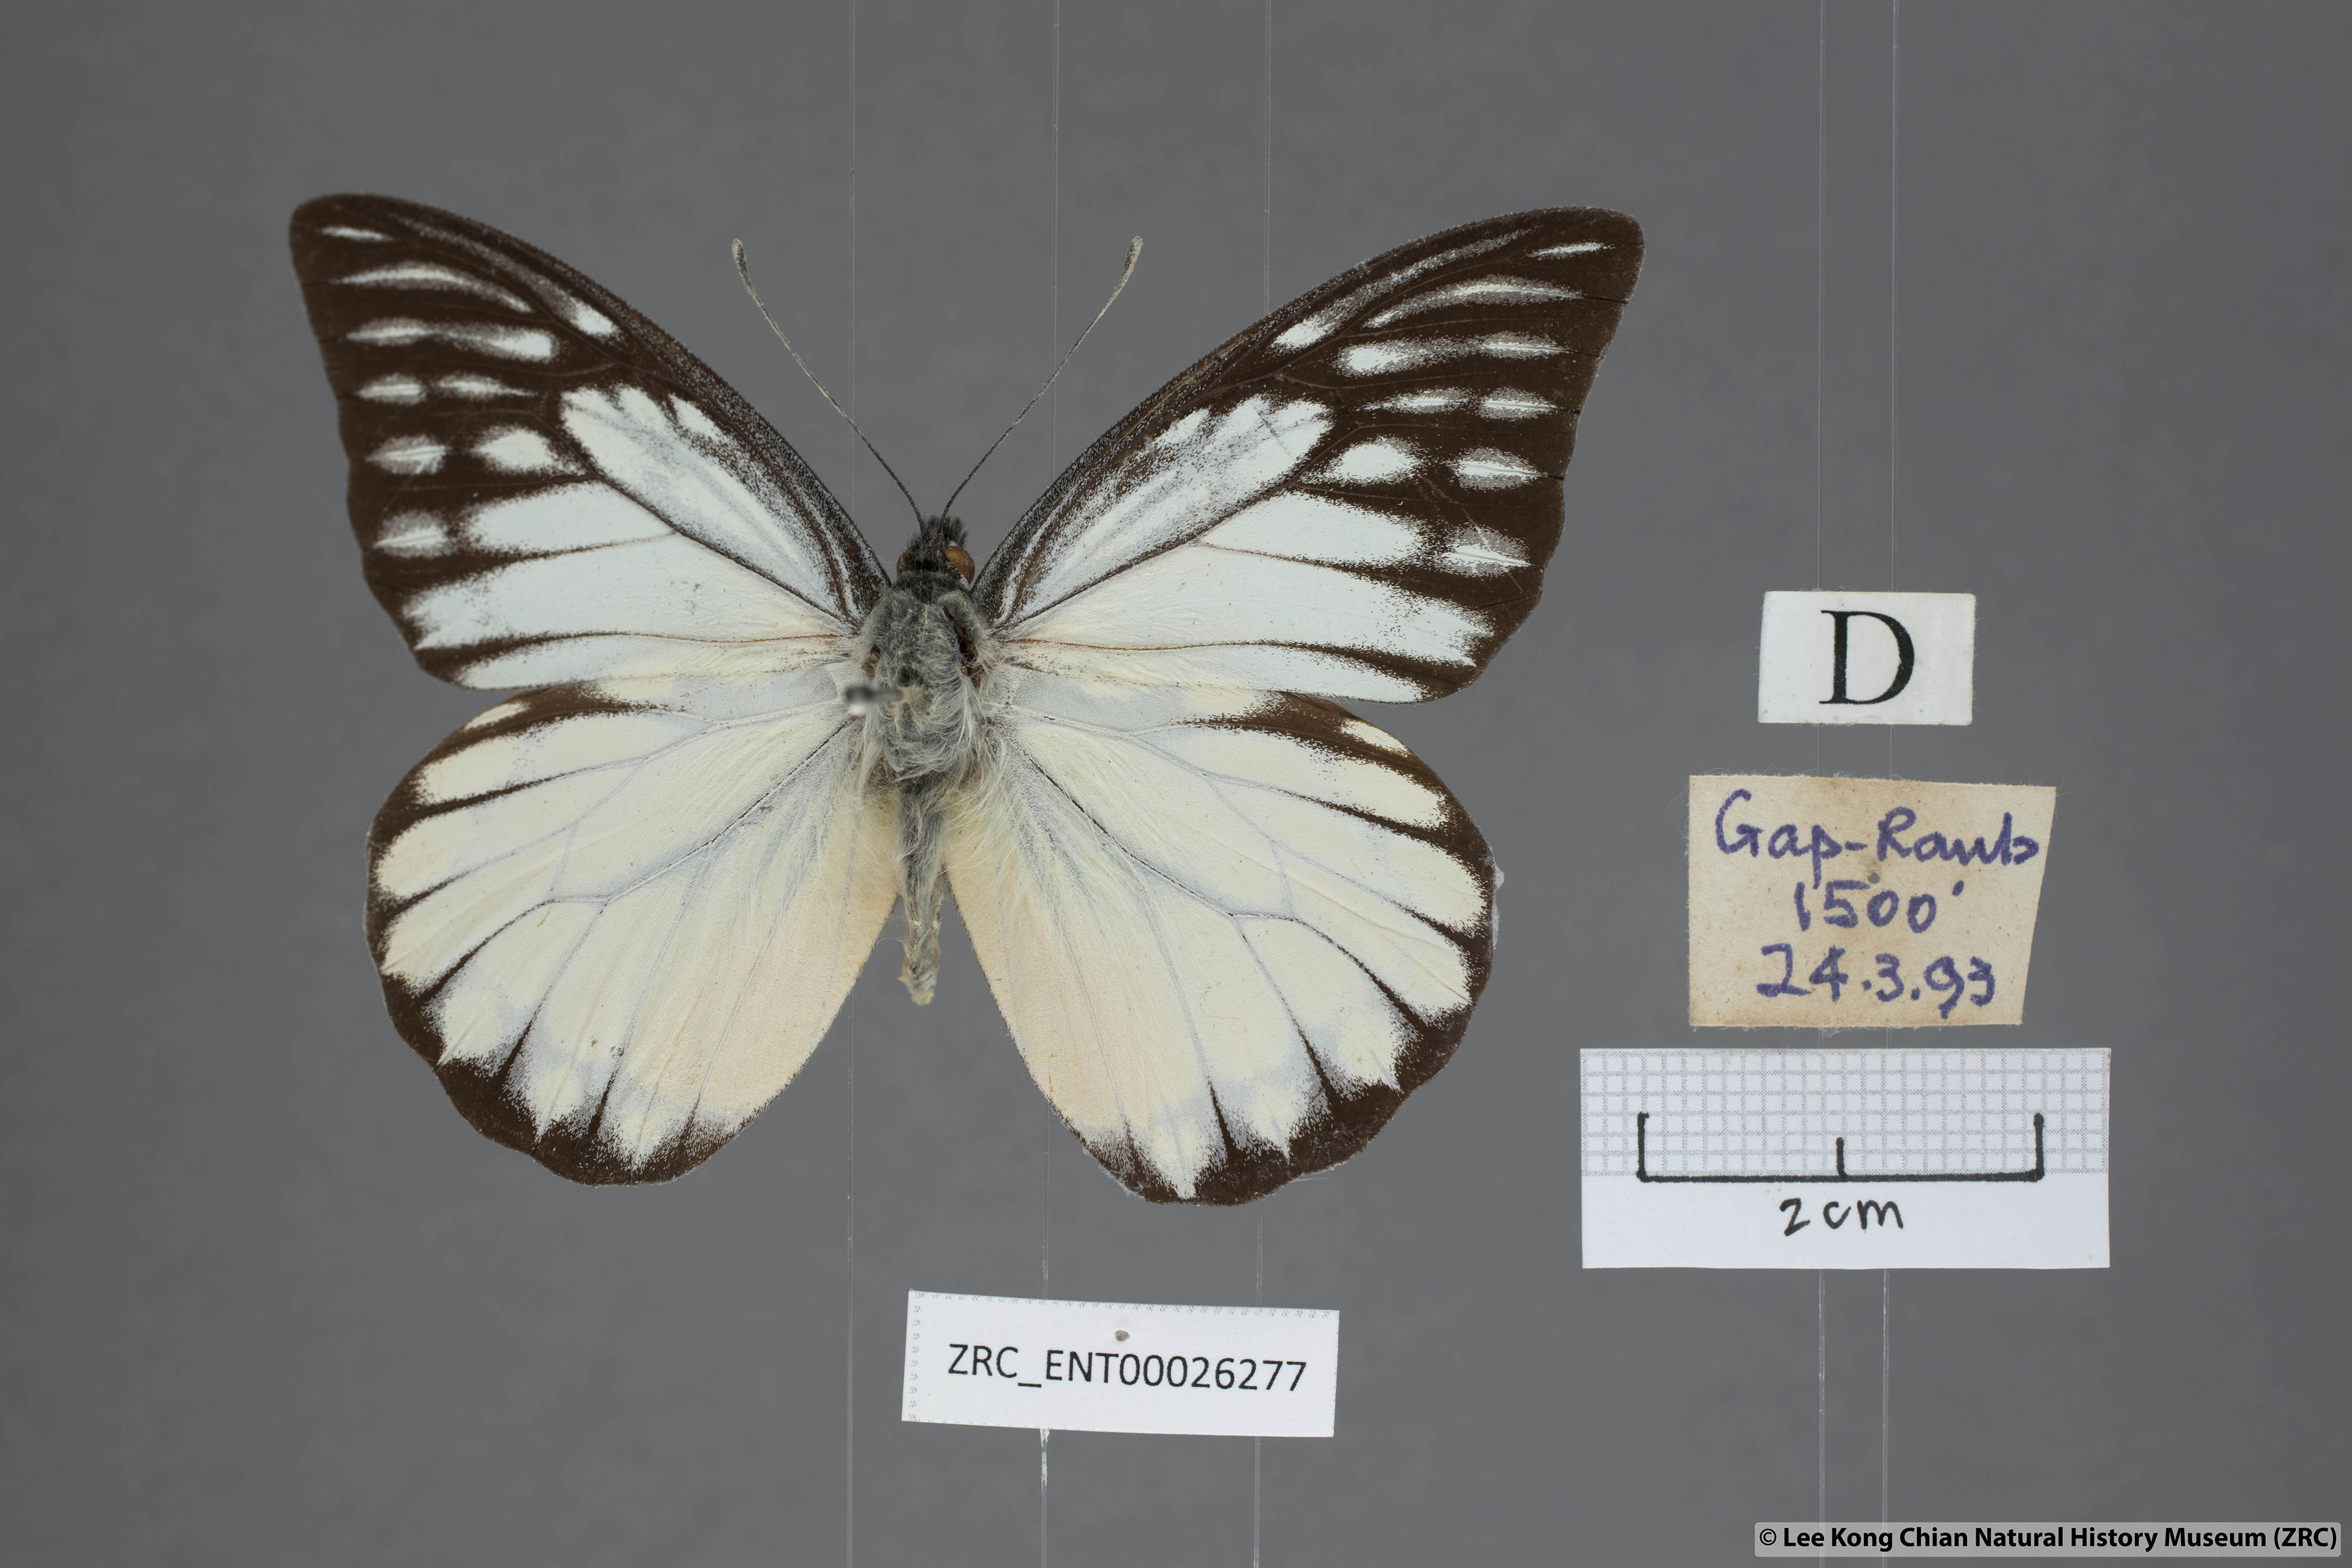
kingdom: Animalia
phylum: Arthropoda
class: Insecta
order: Lepidoptera
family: Pieridae
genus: Prioneris
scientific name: Prioneris thestylis
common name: Spotted sawtooth
